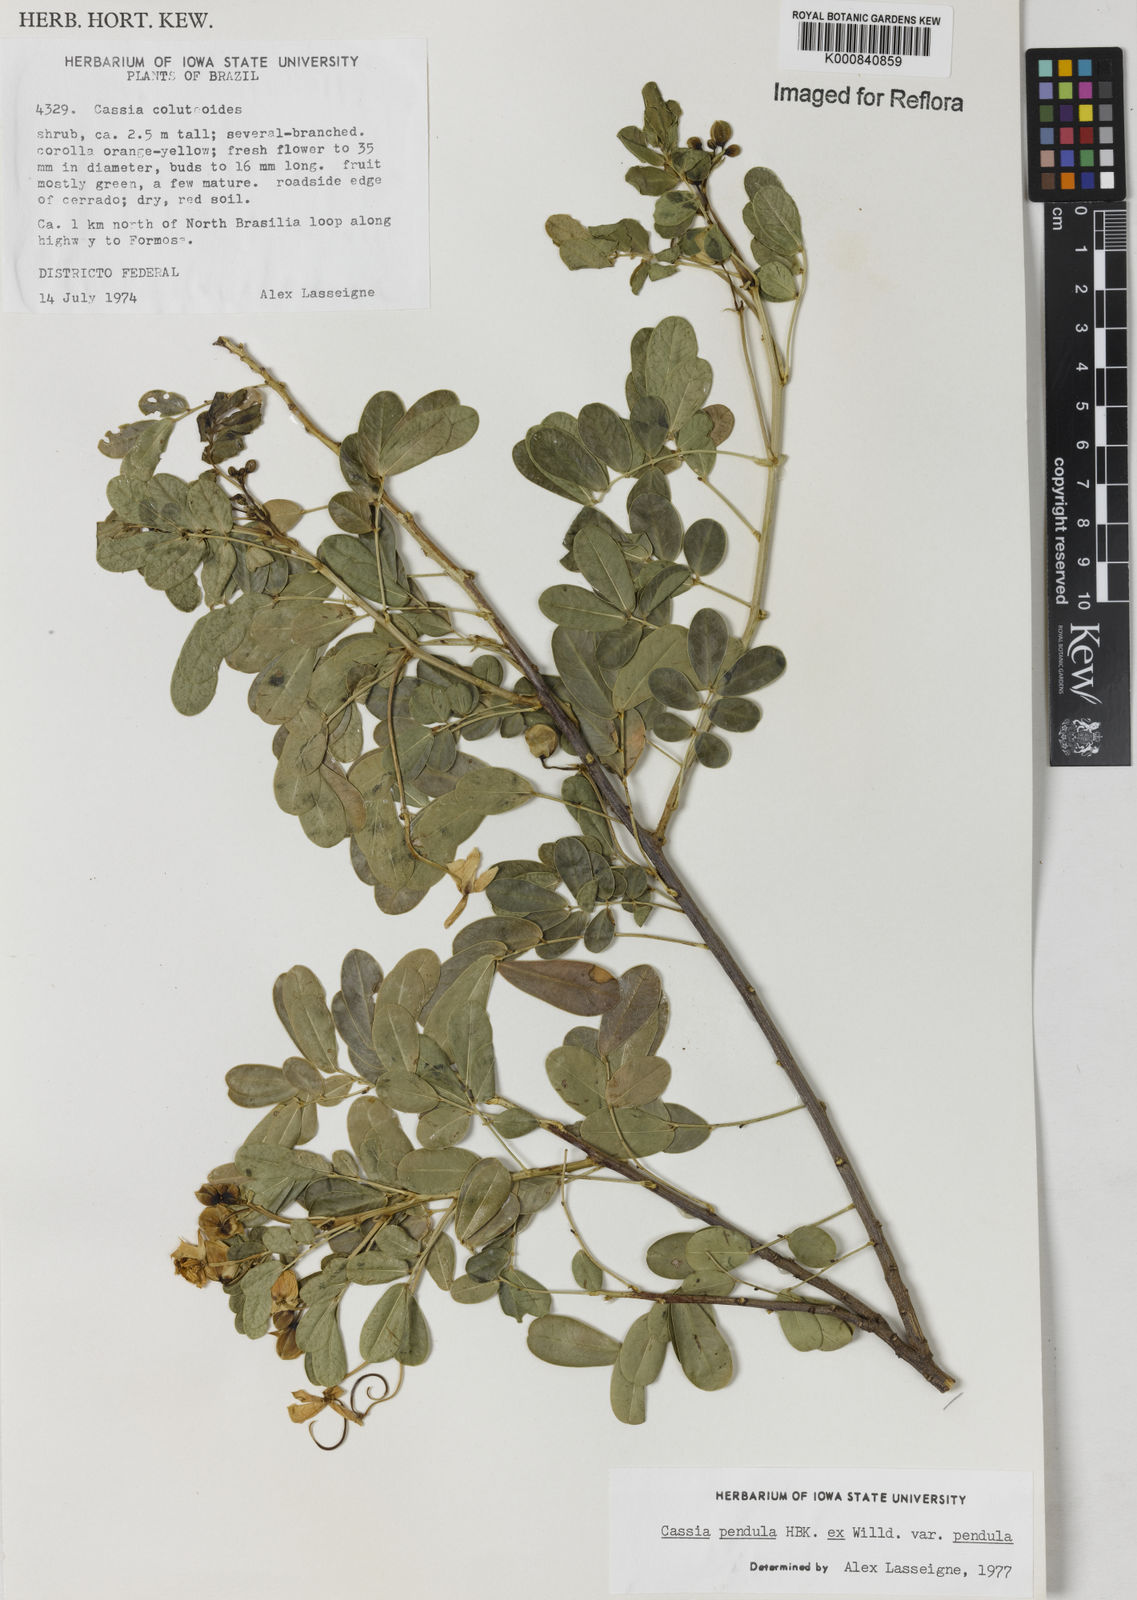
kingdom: Plantae
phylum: Tracheophyta
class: Magnoliopsida
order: Fabales
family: Fabaceae
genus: Senna
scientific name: Senna pendula
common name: Easter cassia
